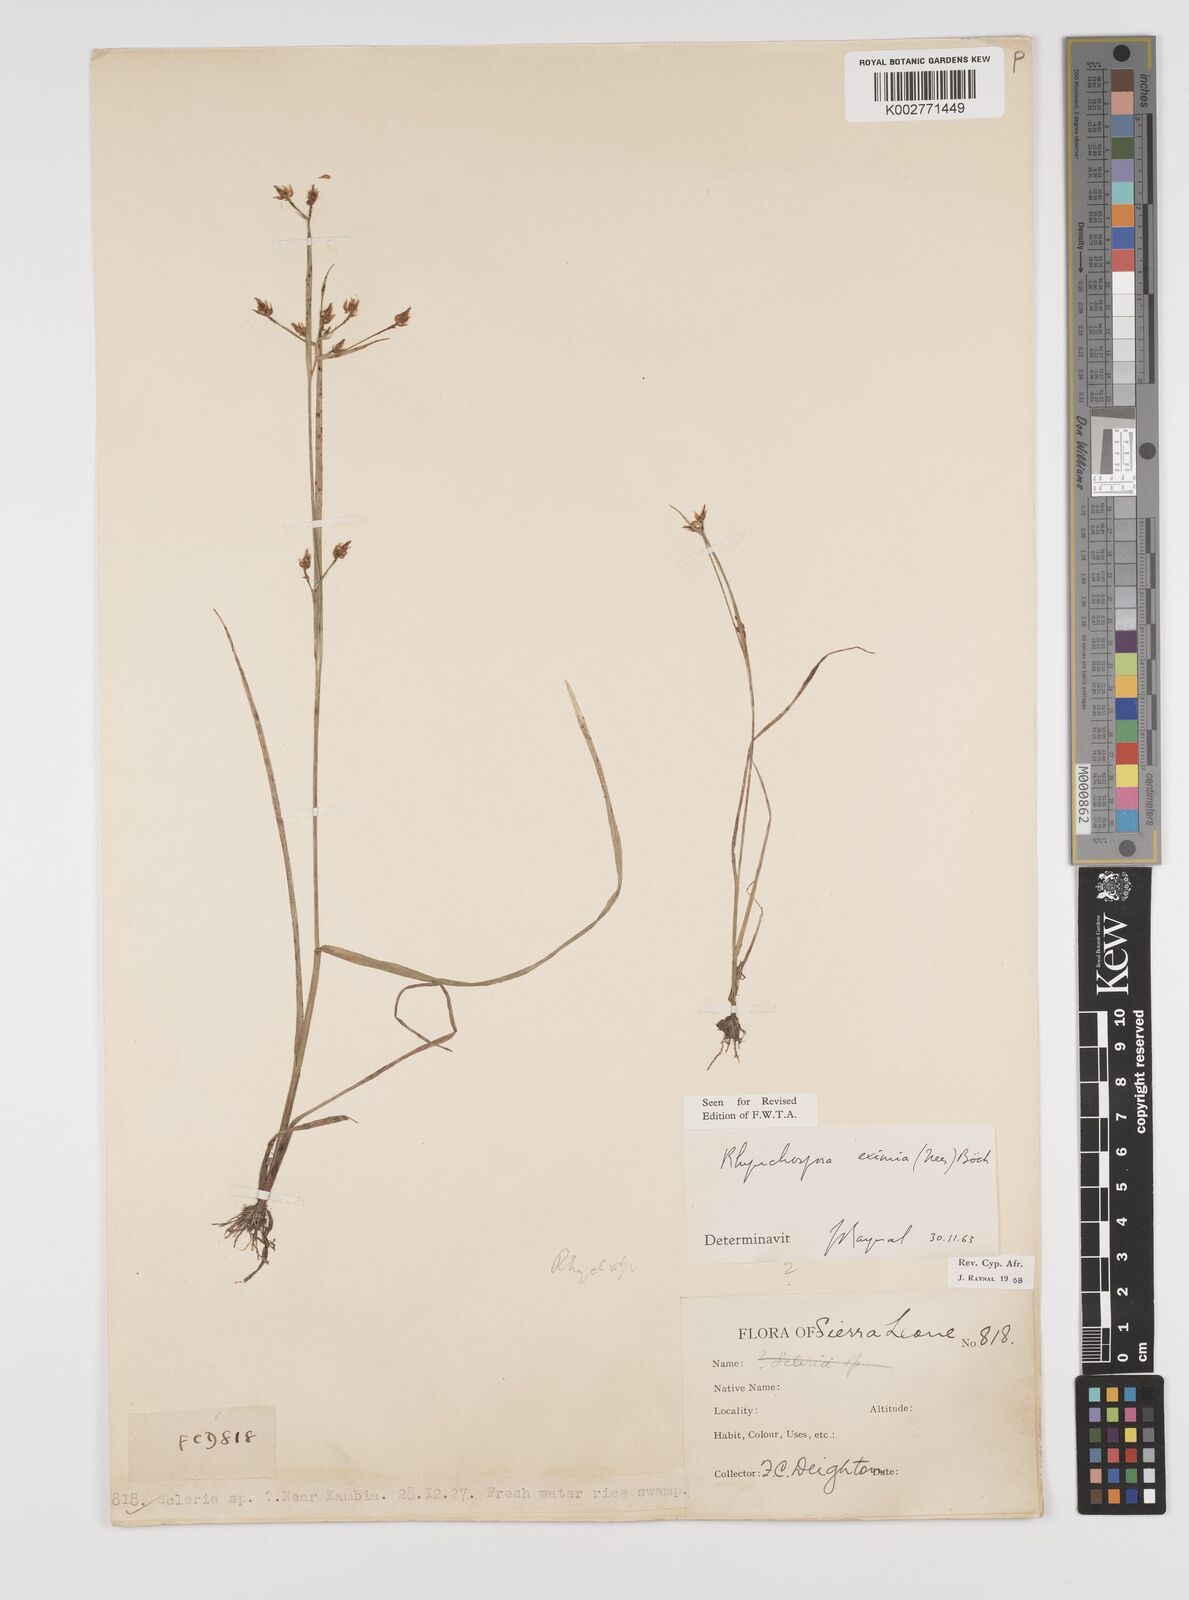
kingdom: Plantae
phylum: Tracheophyta
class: Liliopsida
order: Poales
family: Cyperaceae
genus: Rhynchospora
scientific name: Rhynchospora eximia
